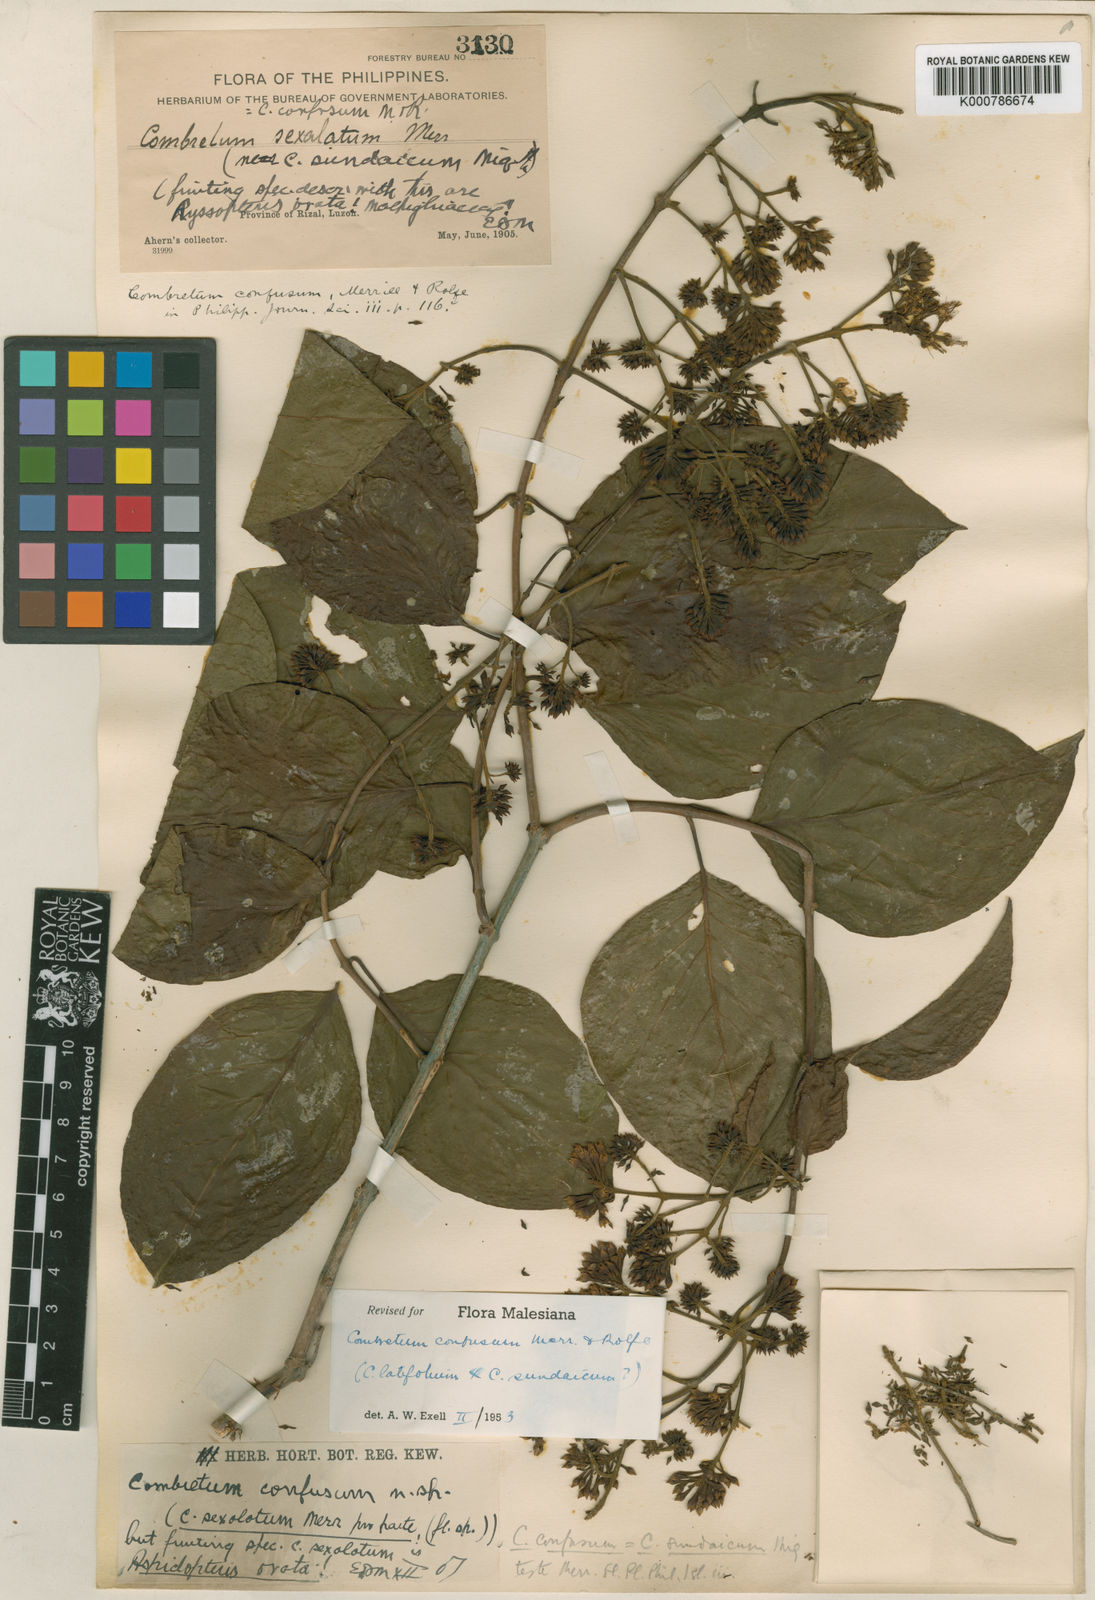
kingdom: Plantae
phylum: Tracheophyta
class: Magnoliopsida
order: Myrtales
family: Combretaceae
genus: Combretum
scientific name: Combretum confusum
